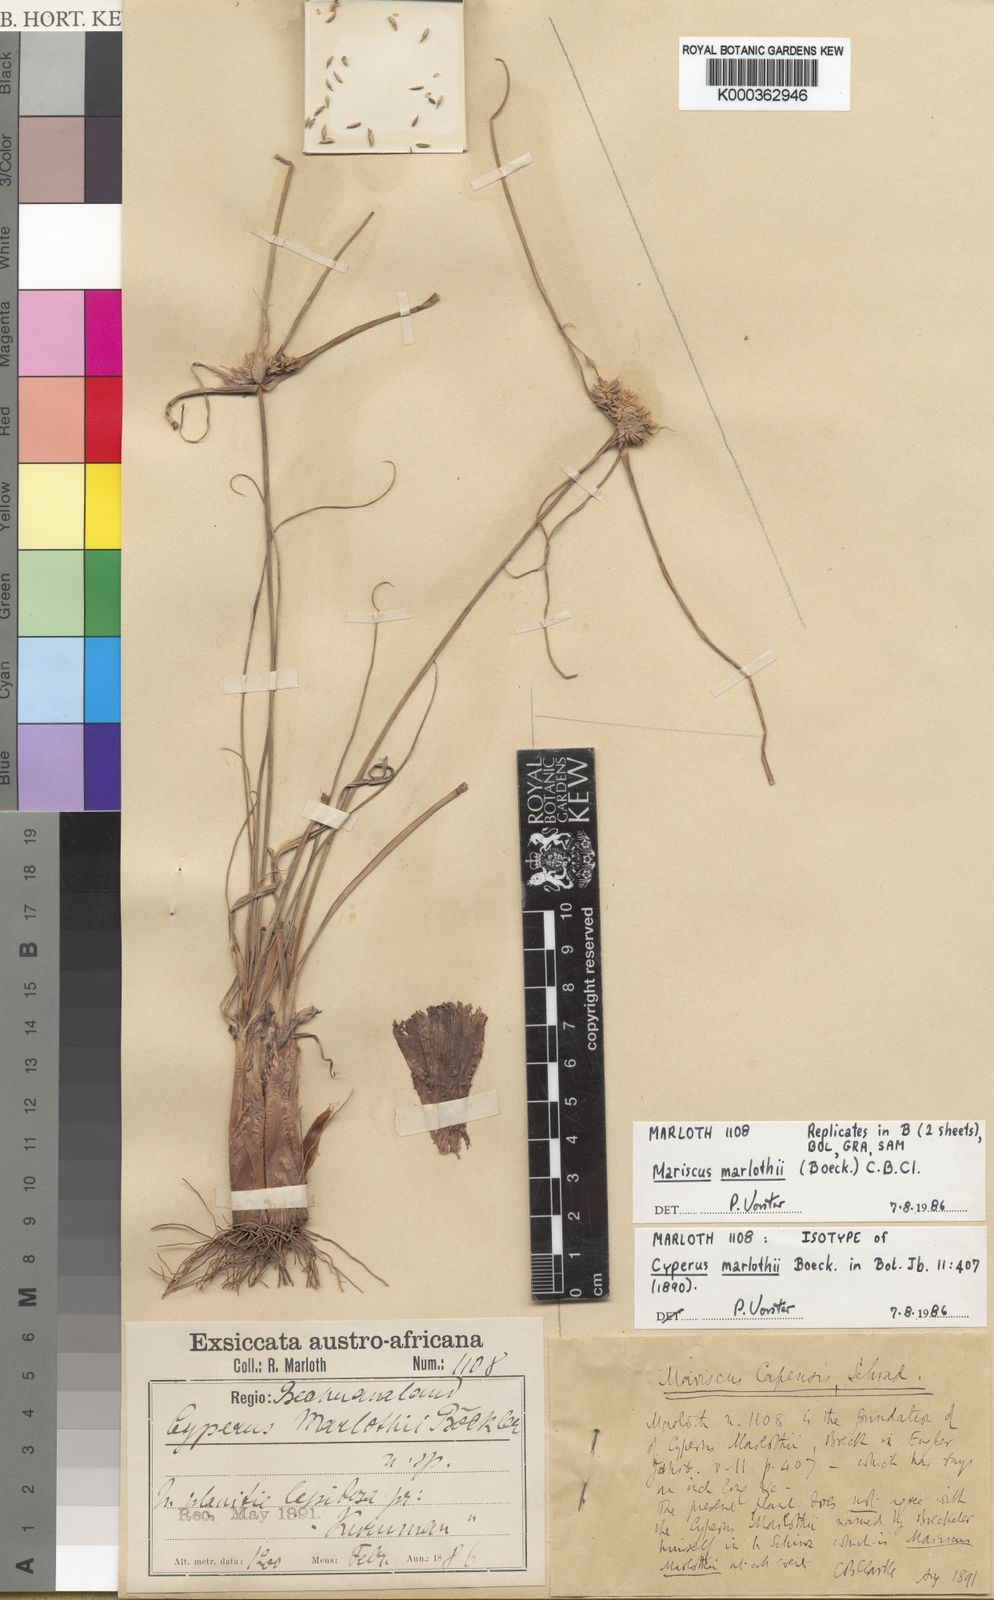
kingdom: Plantae
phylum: Tracheophyta
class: Liliopsida
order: Poales
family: Cyperaceae
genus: Cyperus
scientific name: Cyperus marlothii
